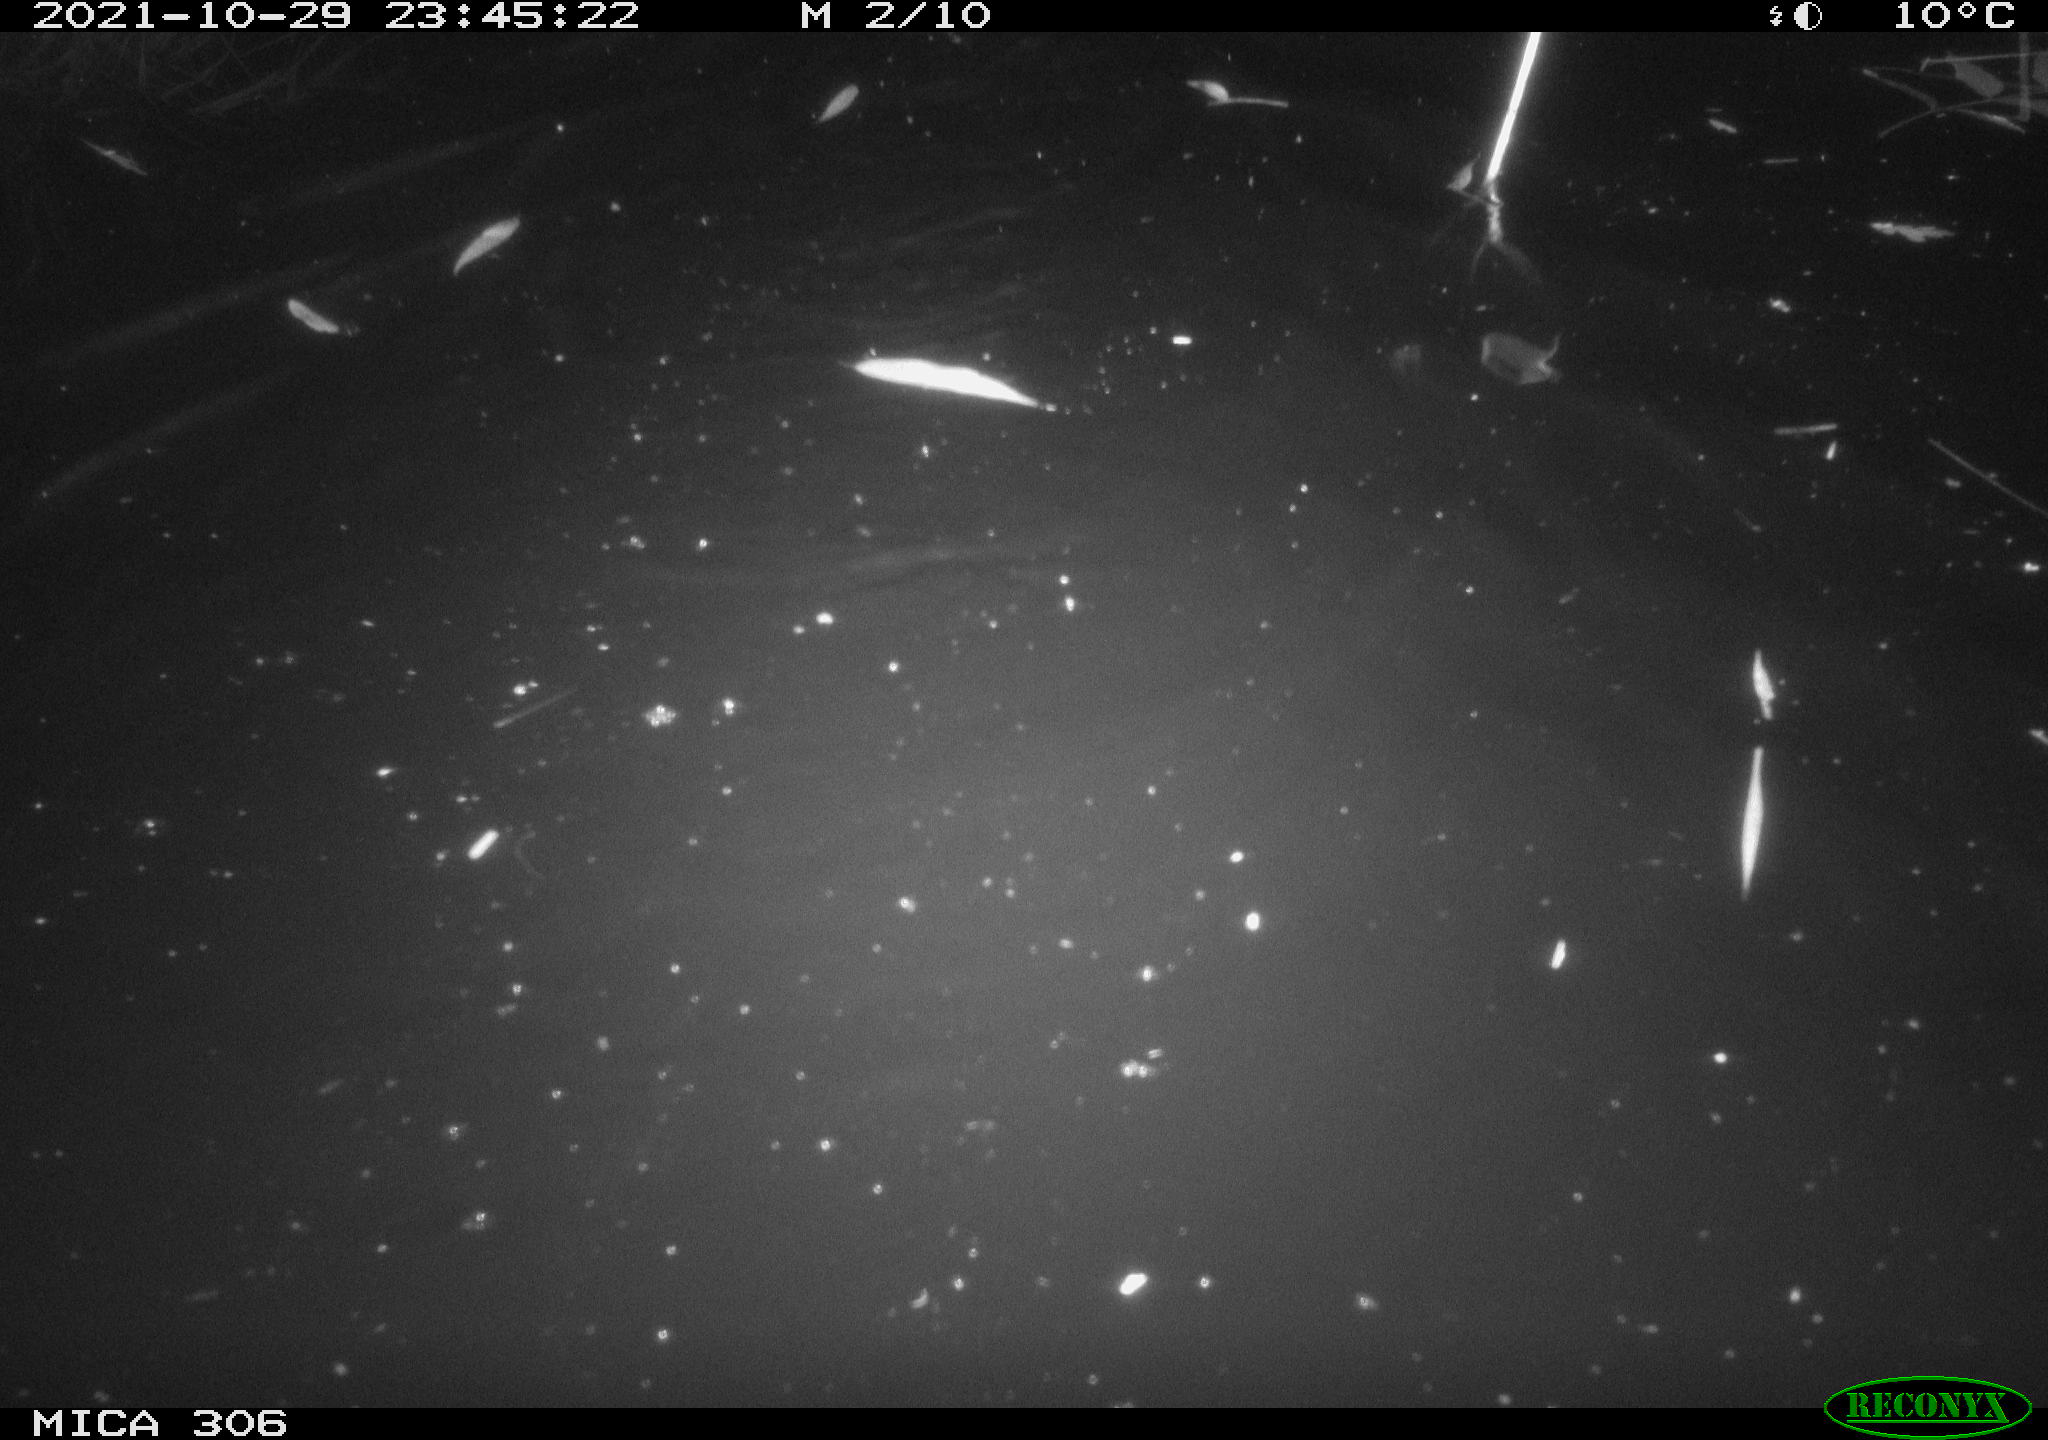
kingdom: Animalia
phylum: Chordata
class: Mammalia
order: Rodentia
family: Cricetidae
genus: Ondatra
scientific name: Ondatra zibethicus
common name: Muskrat
